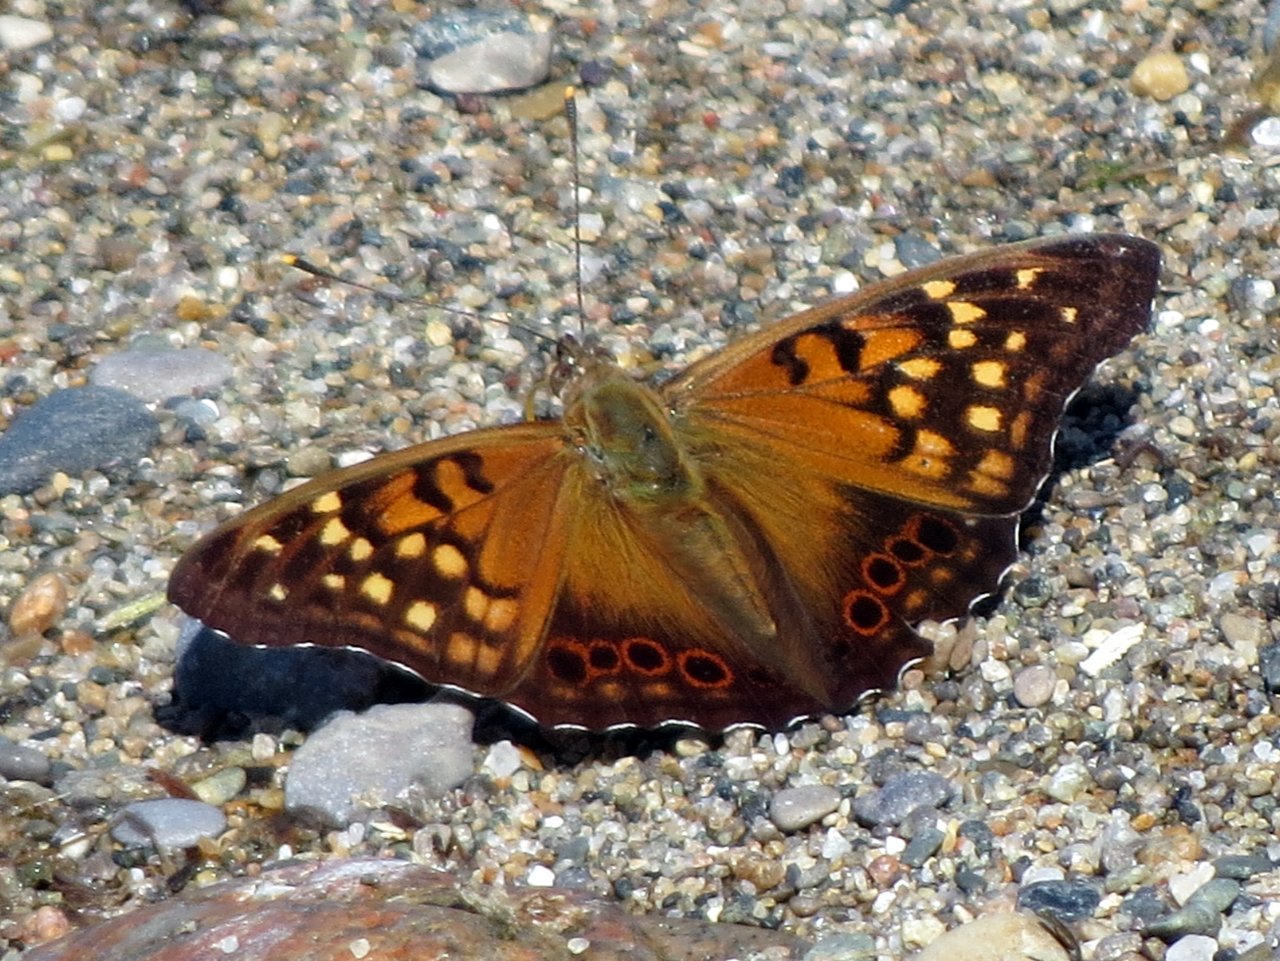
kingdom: Animalia
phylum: Arthropoda
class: Insecta
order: Lepidoptera
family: Nymphalidae
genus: Asterocampa
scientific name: Asterocampa clyton
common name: Tawny Emperor
